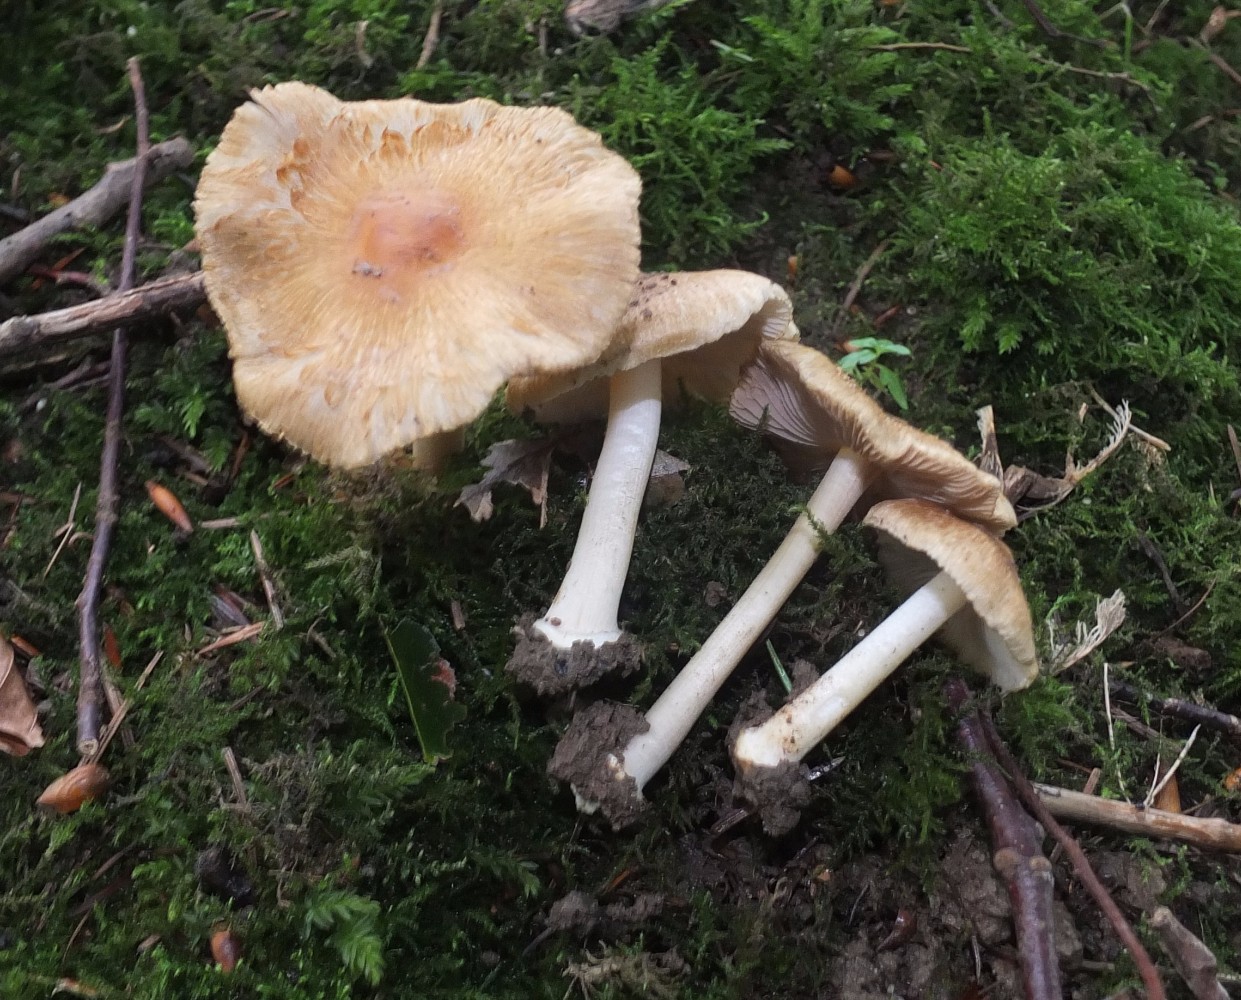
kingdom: Fungi
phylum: Basidiomycota
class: Agaricomycetes
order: Agaricales
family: Inocybaceae
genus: Inocybe
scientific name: Inocybe xanthomelas
